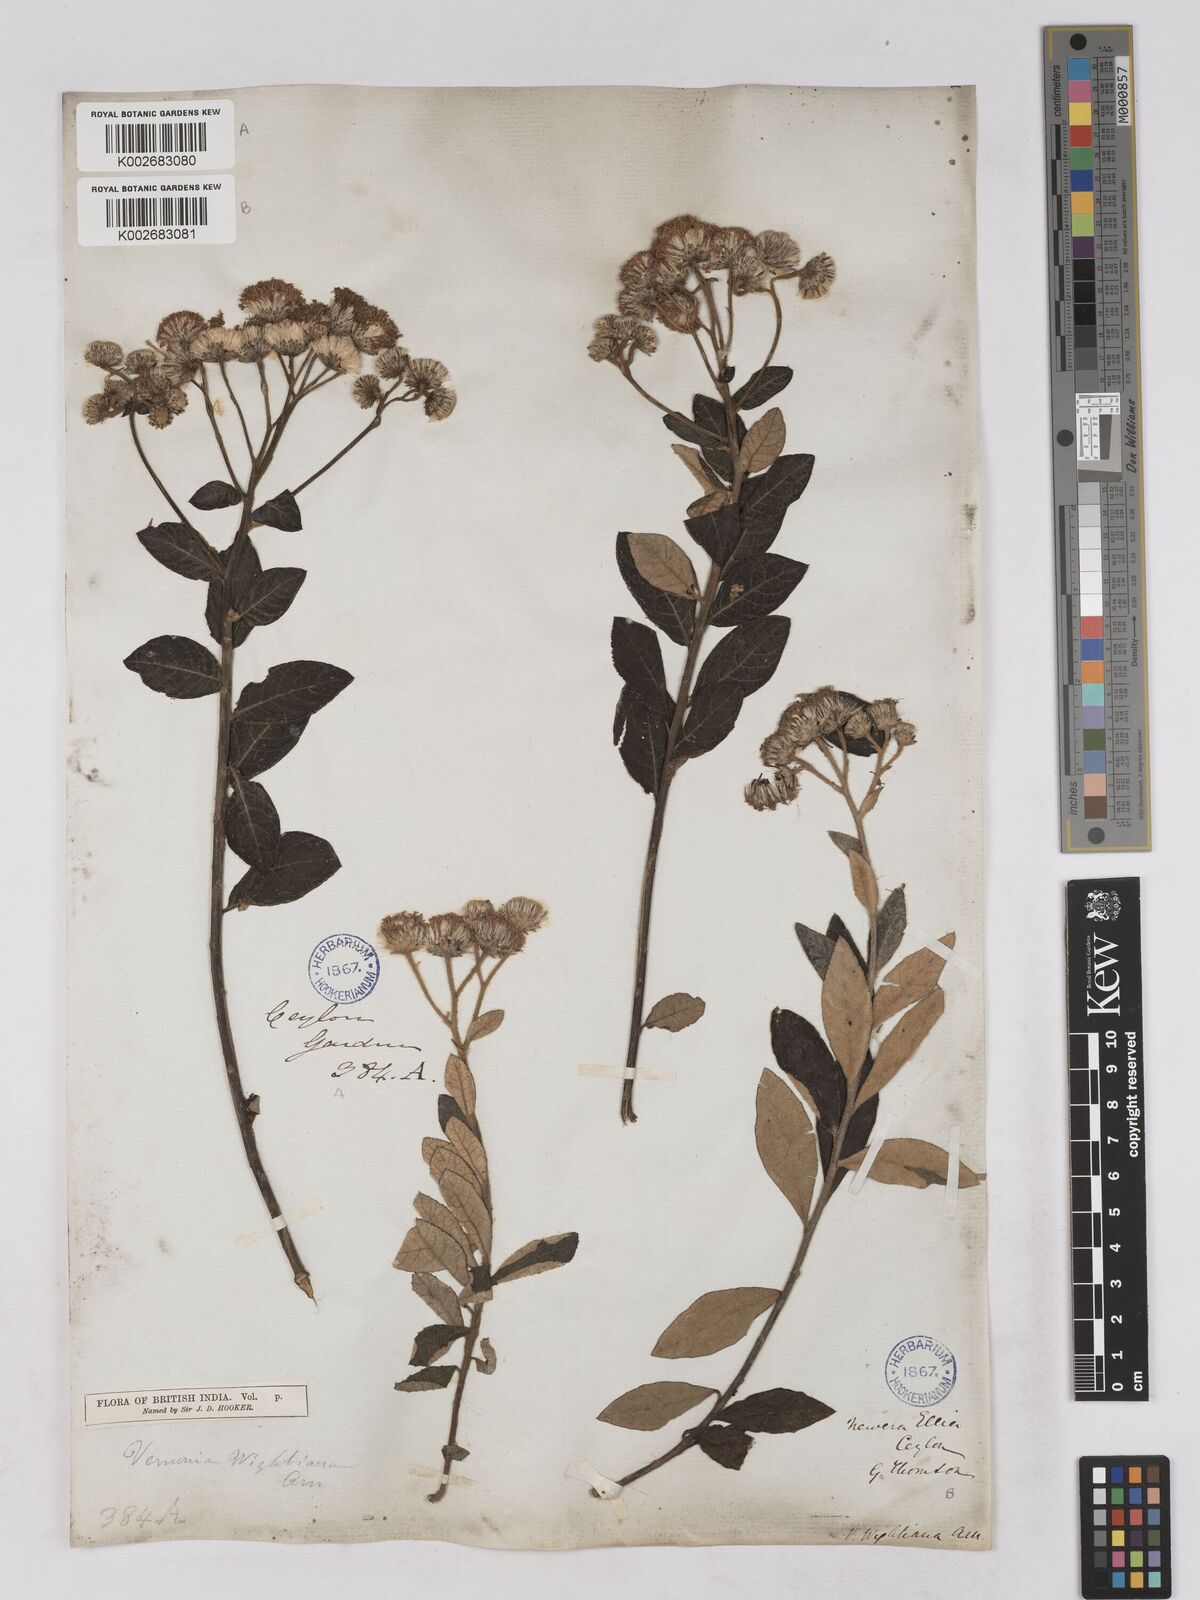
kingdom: Plantae
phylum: Tracheophyta
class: Magnoliopsida
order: Asterales
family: Asteraceae
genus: Uniyala
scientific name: Uniyala wightiana
